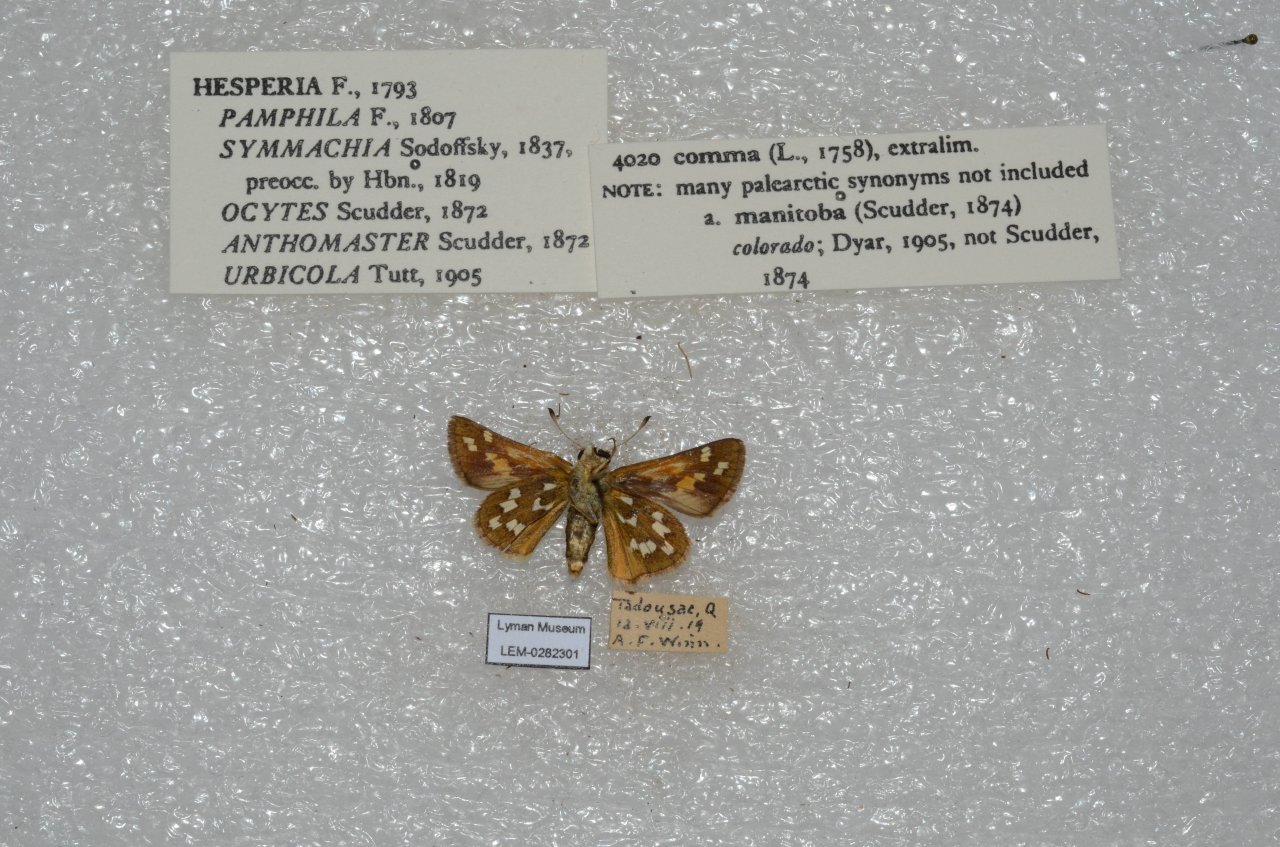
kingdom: Animalia
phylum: Arthropoda
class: Insecta
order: Lepidoptera
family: Hesperiidae
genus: Hesperia
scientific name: Hesperia comma
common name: Common Branded Skipper
